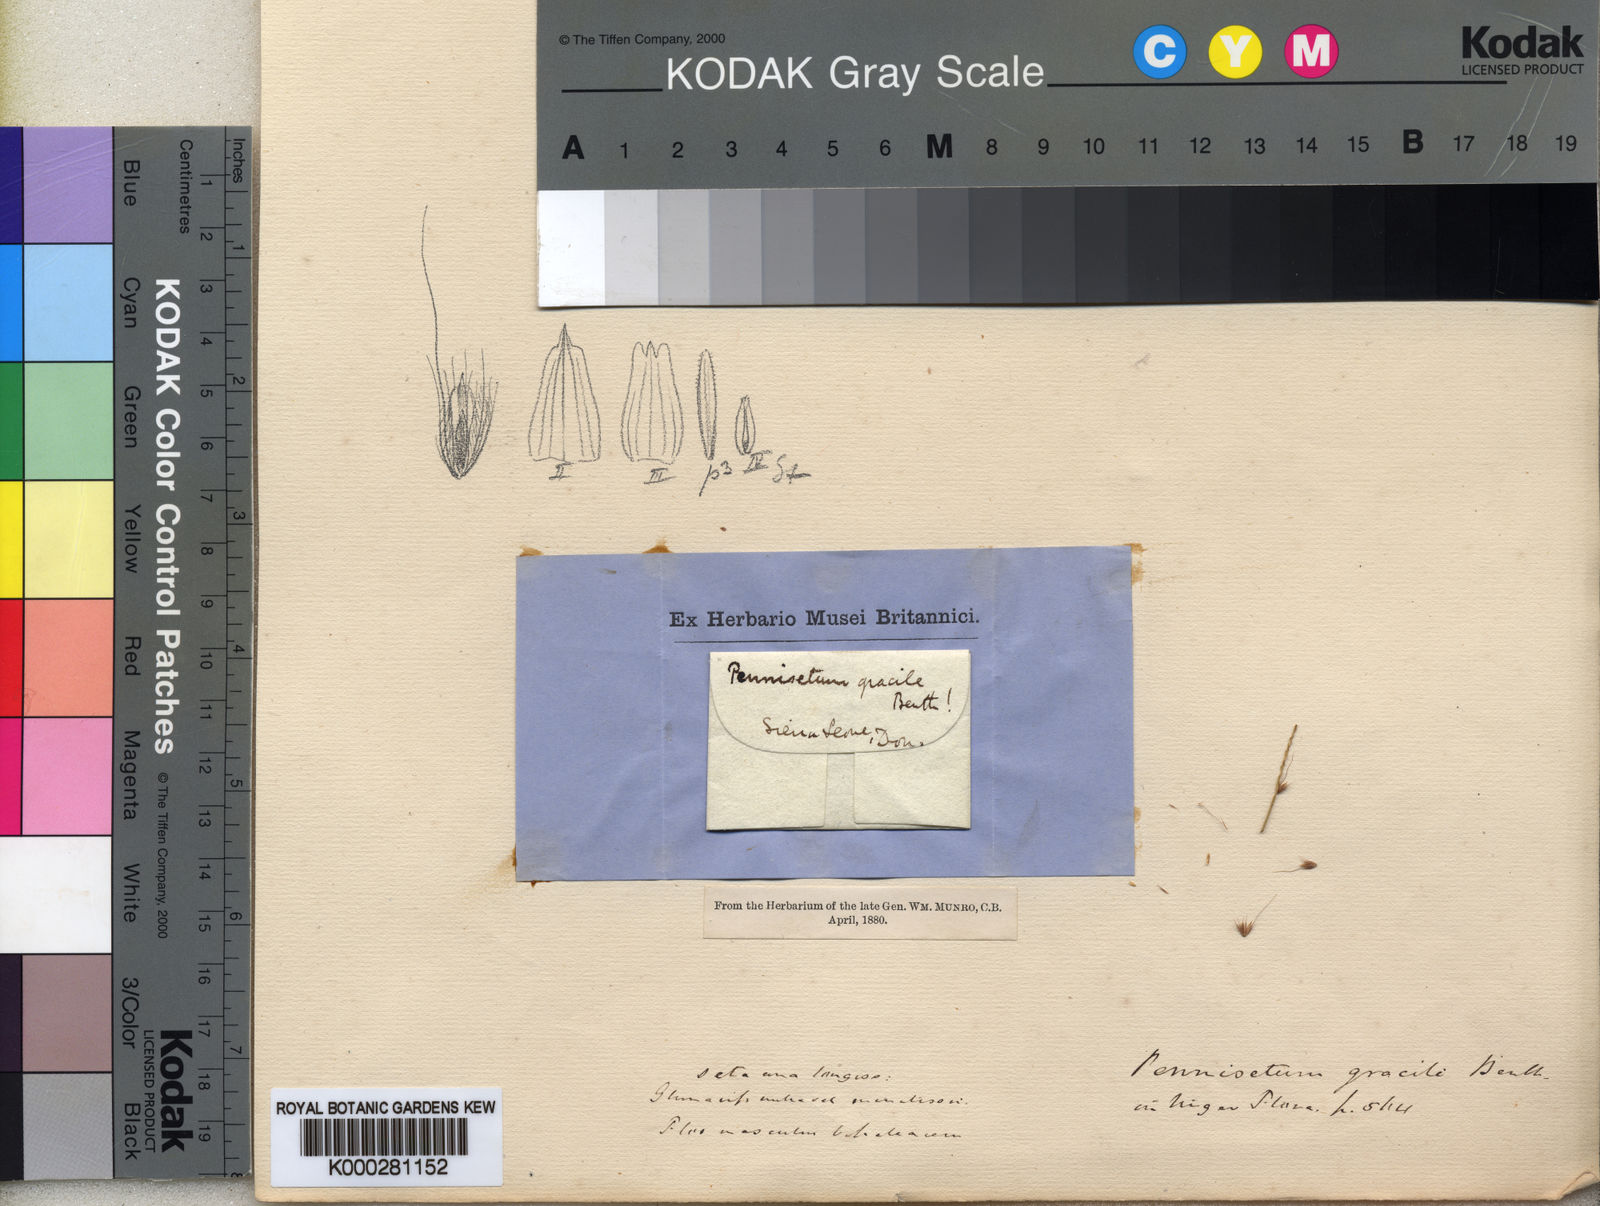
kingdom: Plantae
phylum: Tracheophyta
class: Liliopsida
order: Poales
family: Poaceae
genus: Setaria
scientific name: Setaria parviflora
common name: Knotroot bristle-grass
